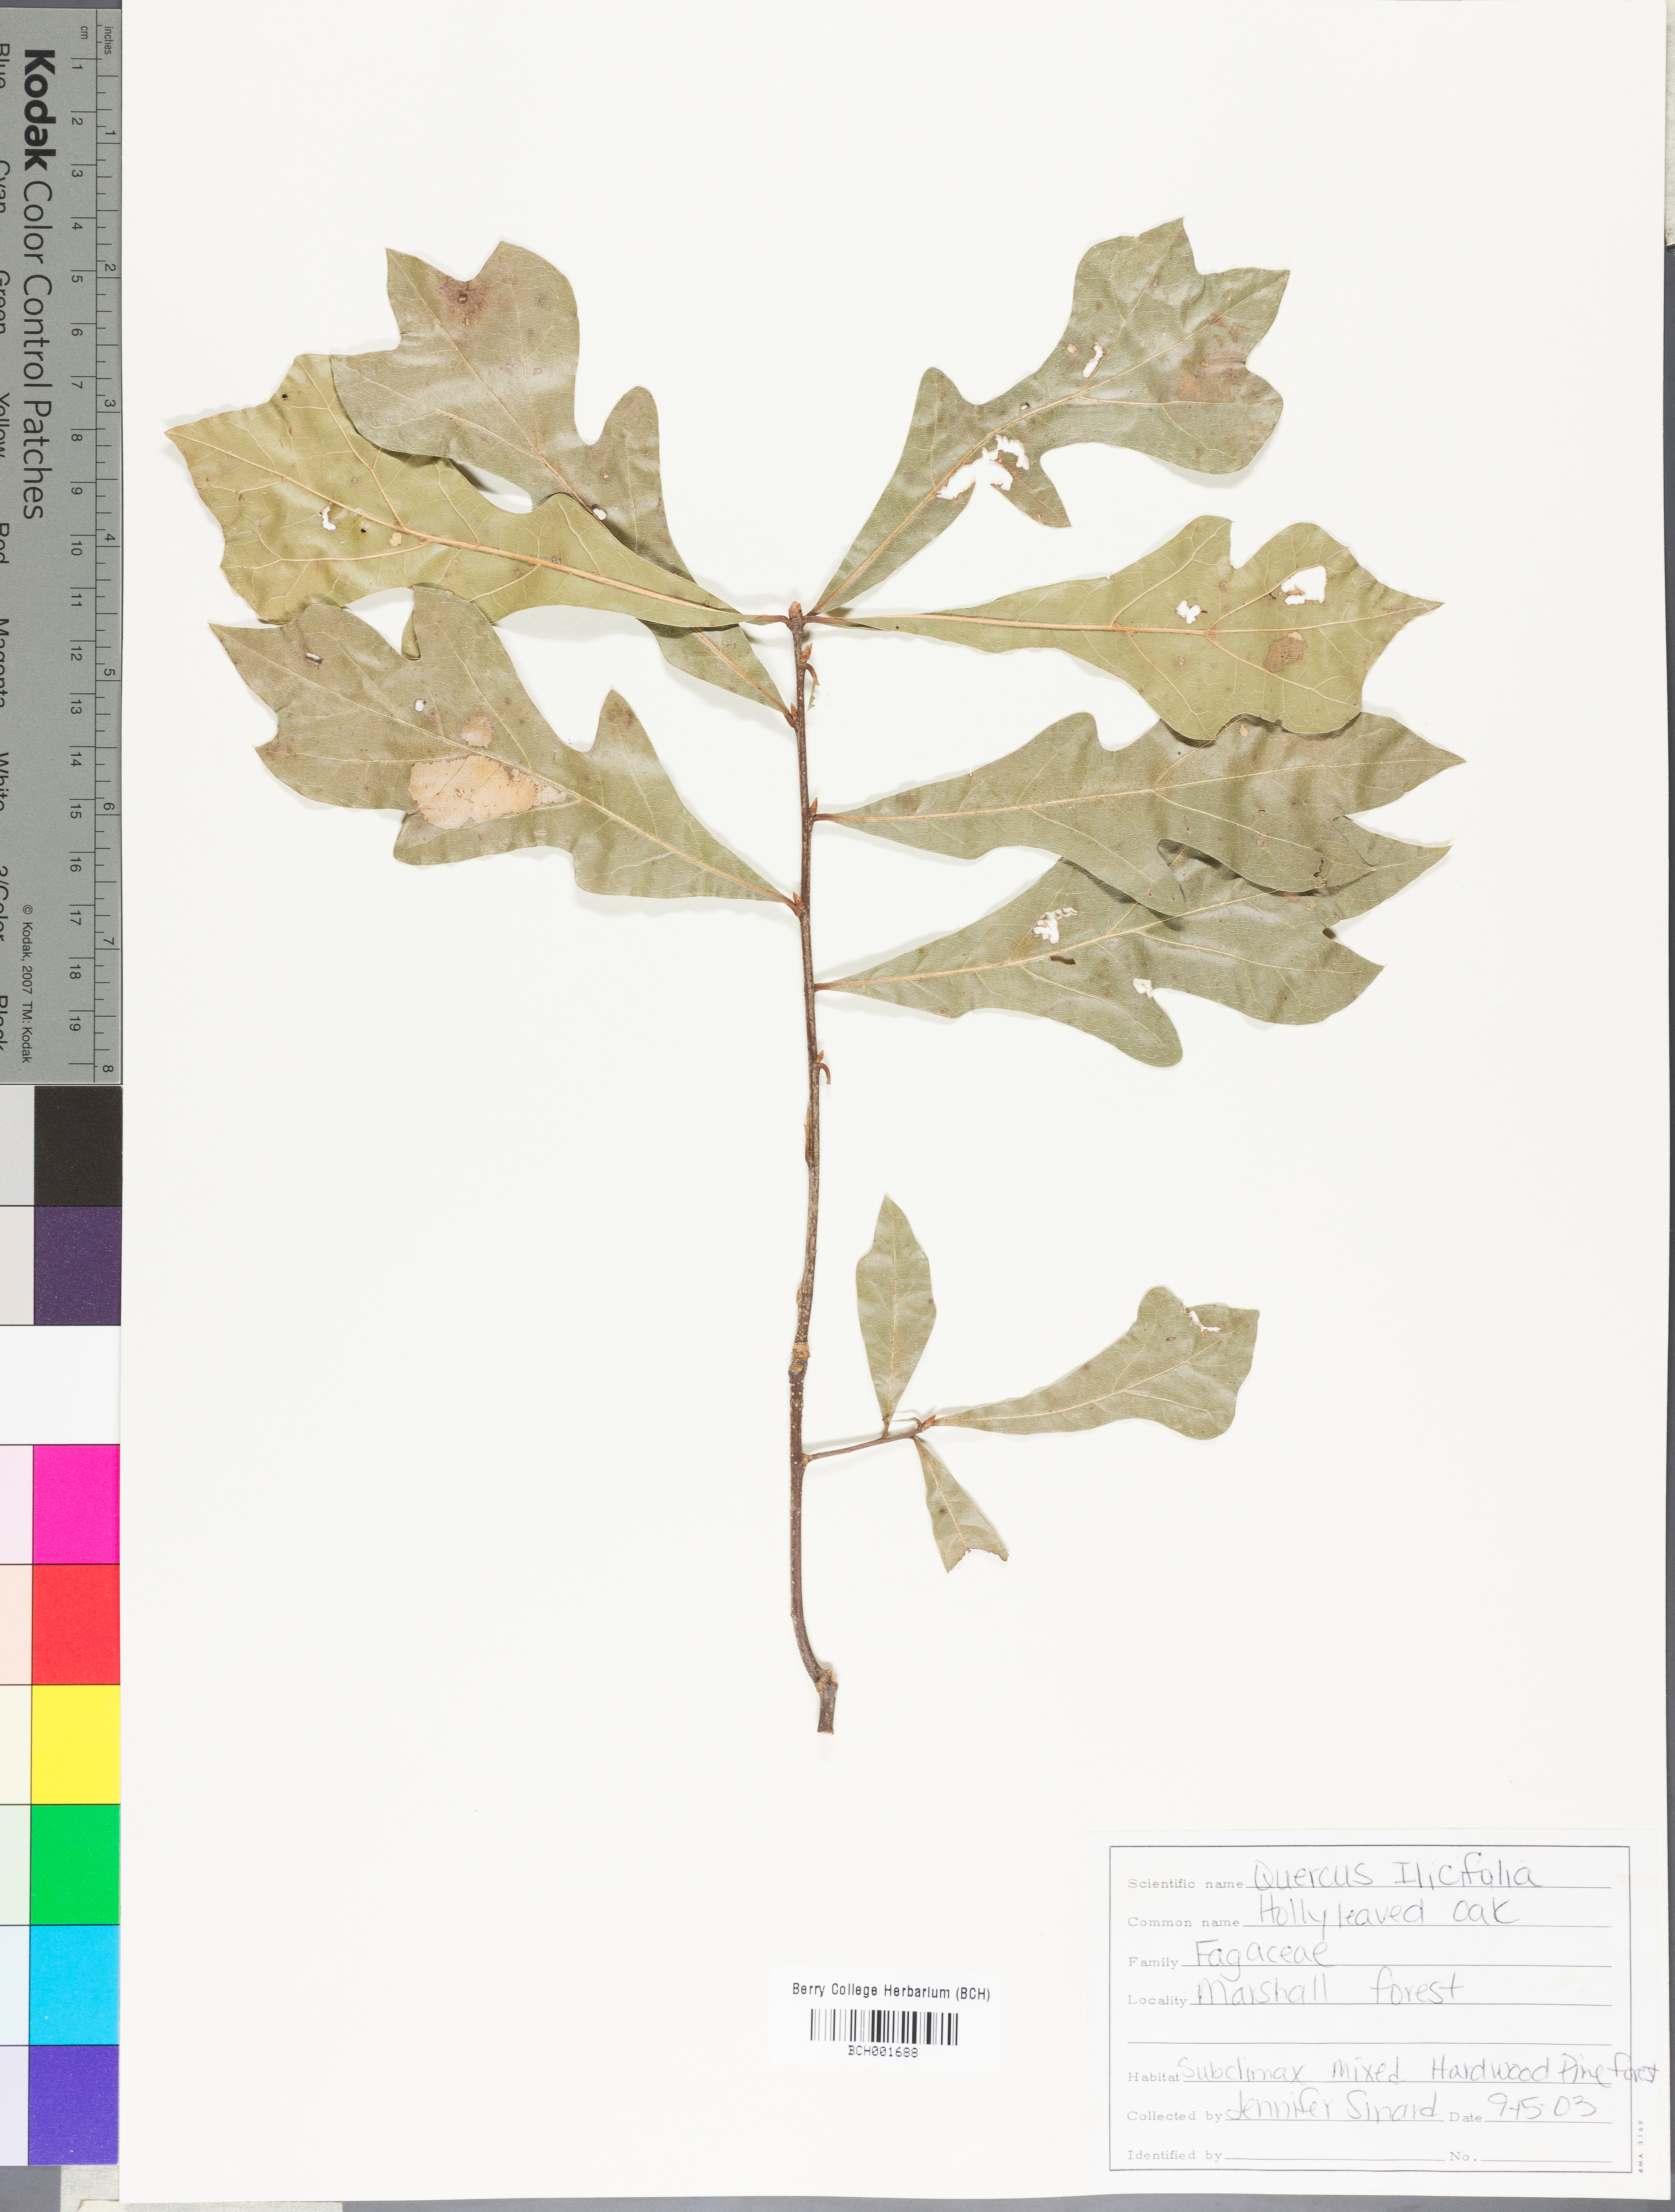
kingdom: Plantae
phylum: Tracheophyta
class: Magnoliopsida
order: Fagales
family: Fagaceae
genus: Quercus
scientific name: Quercus ilicifolia
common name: Bear oak
